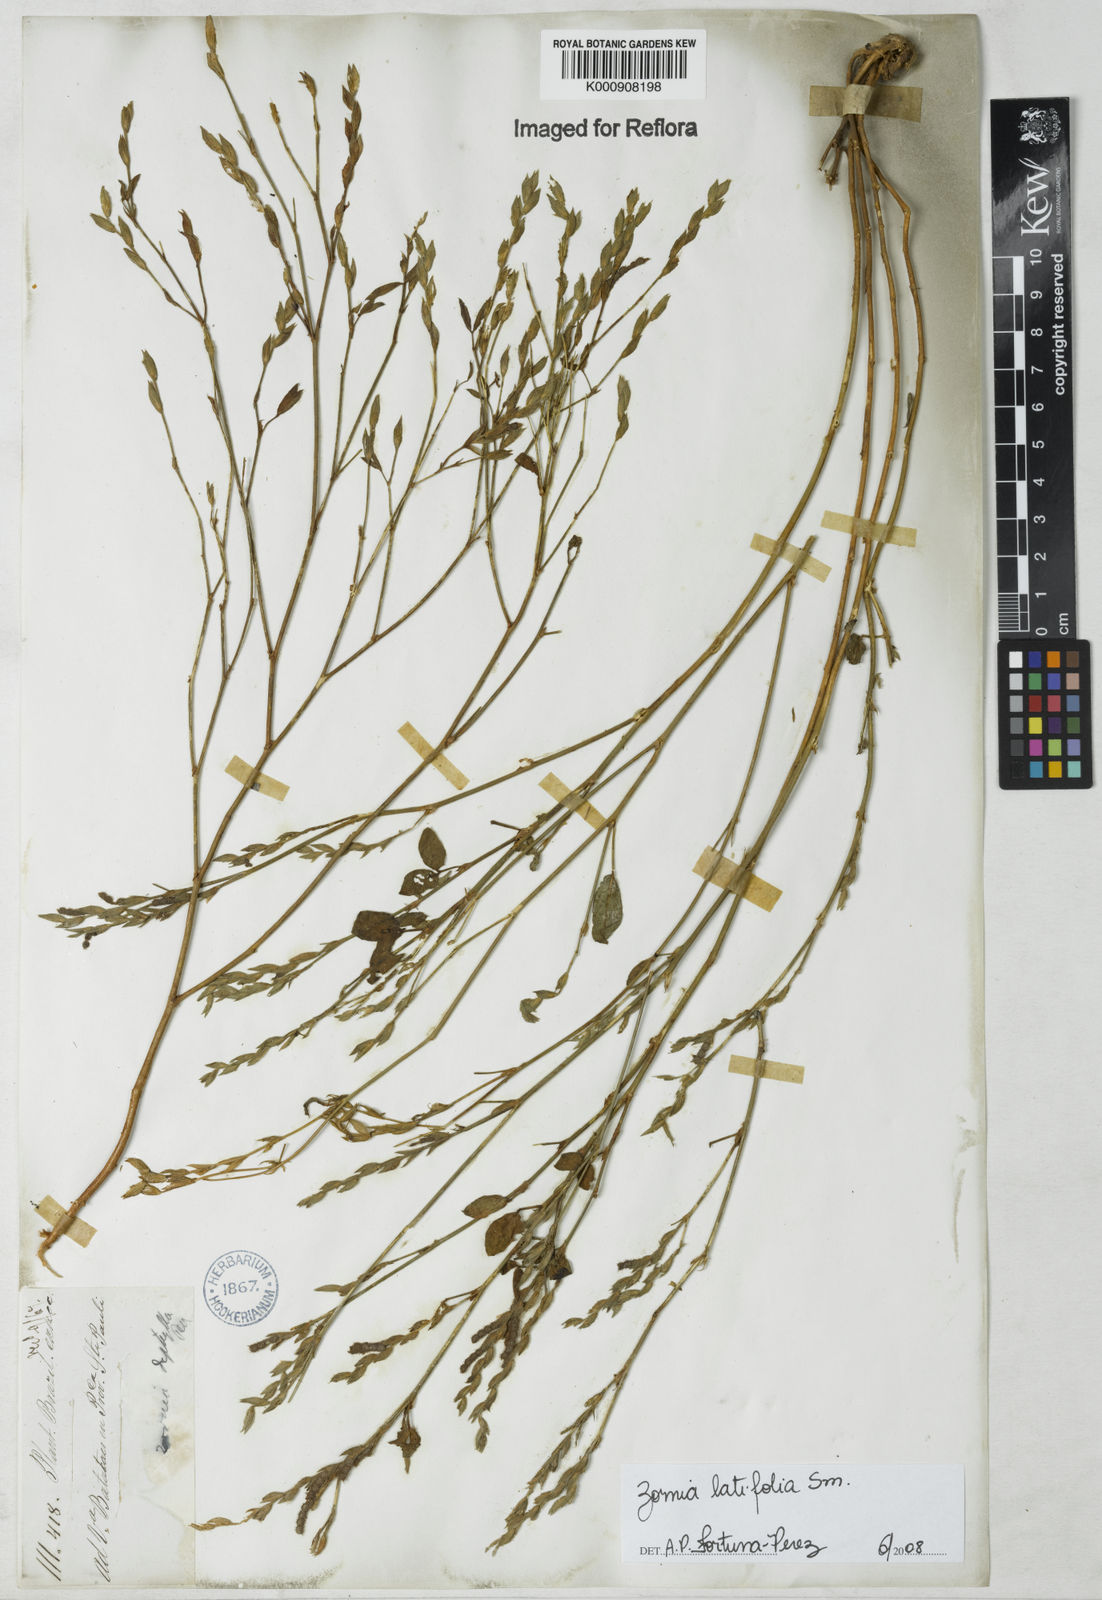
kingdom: Plantae
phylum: Tracheophyta
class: Magnoliopsida
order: Fabales
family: Fabaceae
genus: Zornia
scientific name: Zornia latifolia
